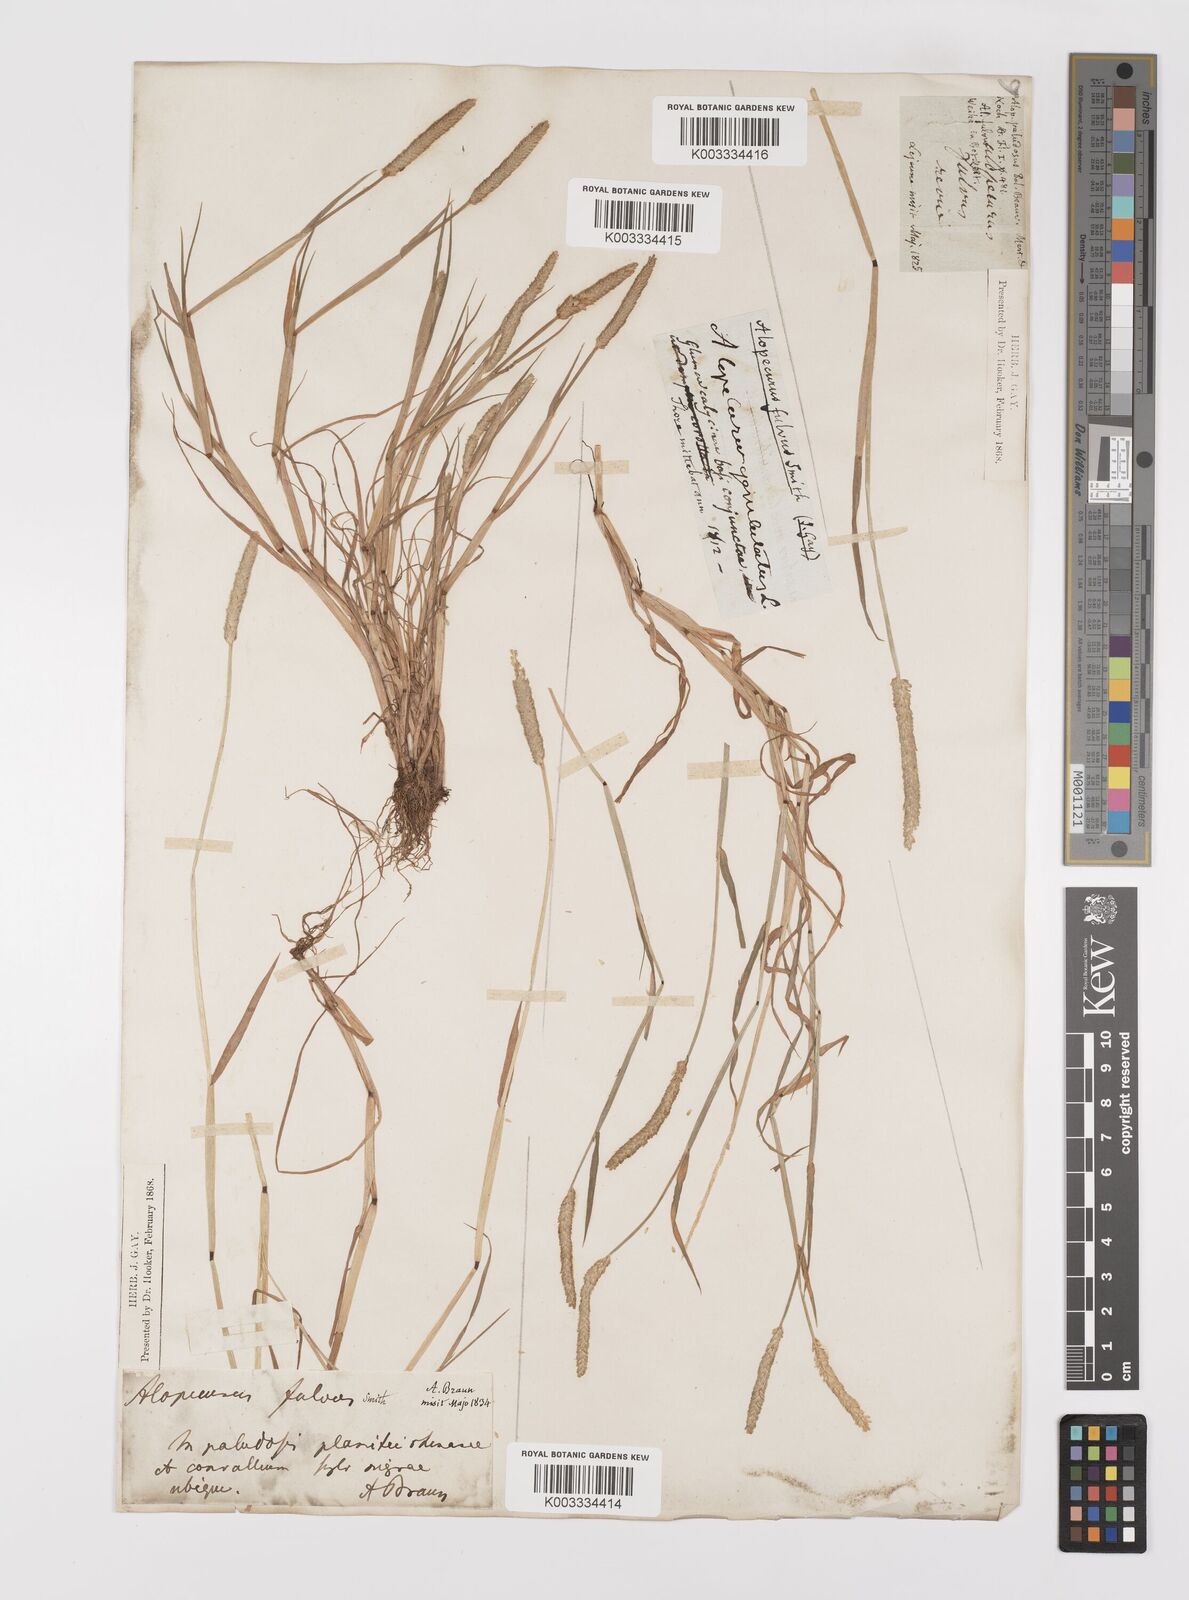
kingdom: Plantae
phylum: Tracheophyta
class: Liliopsida
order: Poales
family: Poaceae
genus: Alopecurus
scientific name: Alopecurus aequalis
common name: Orange foxtail
